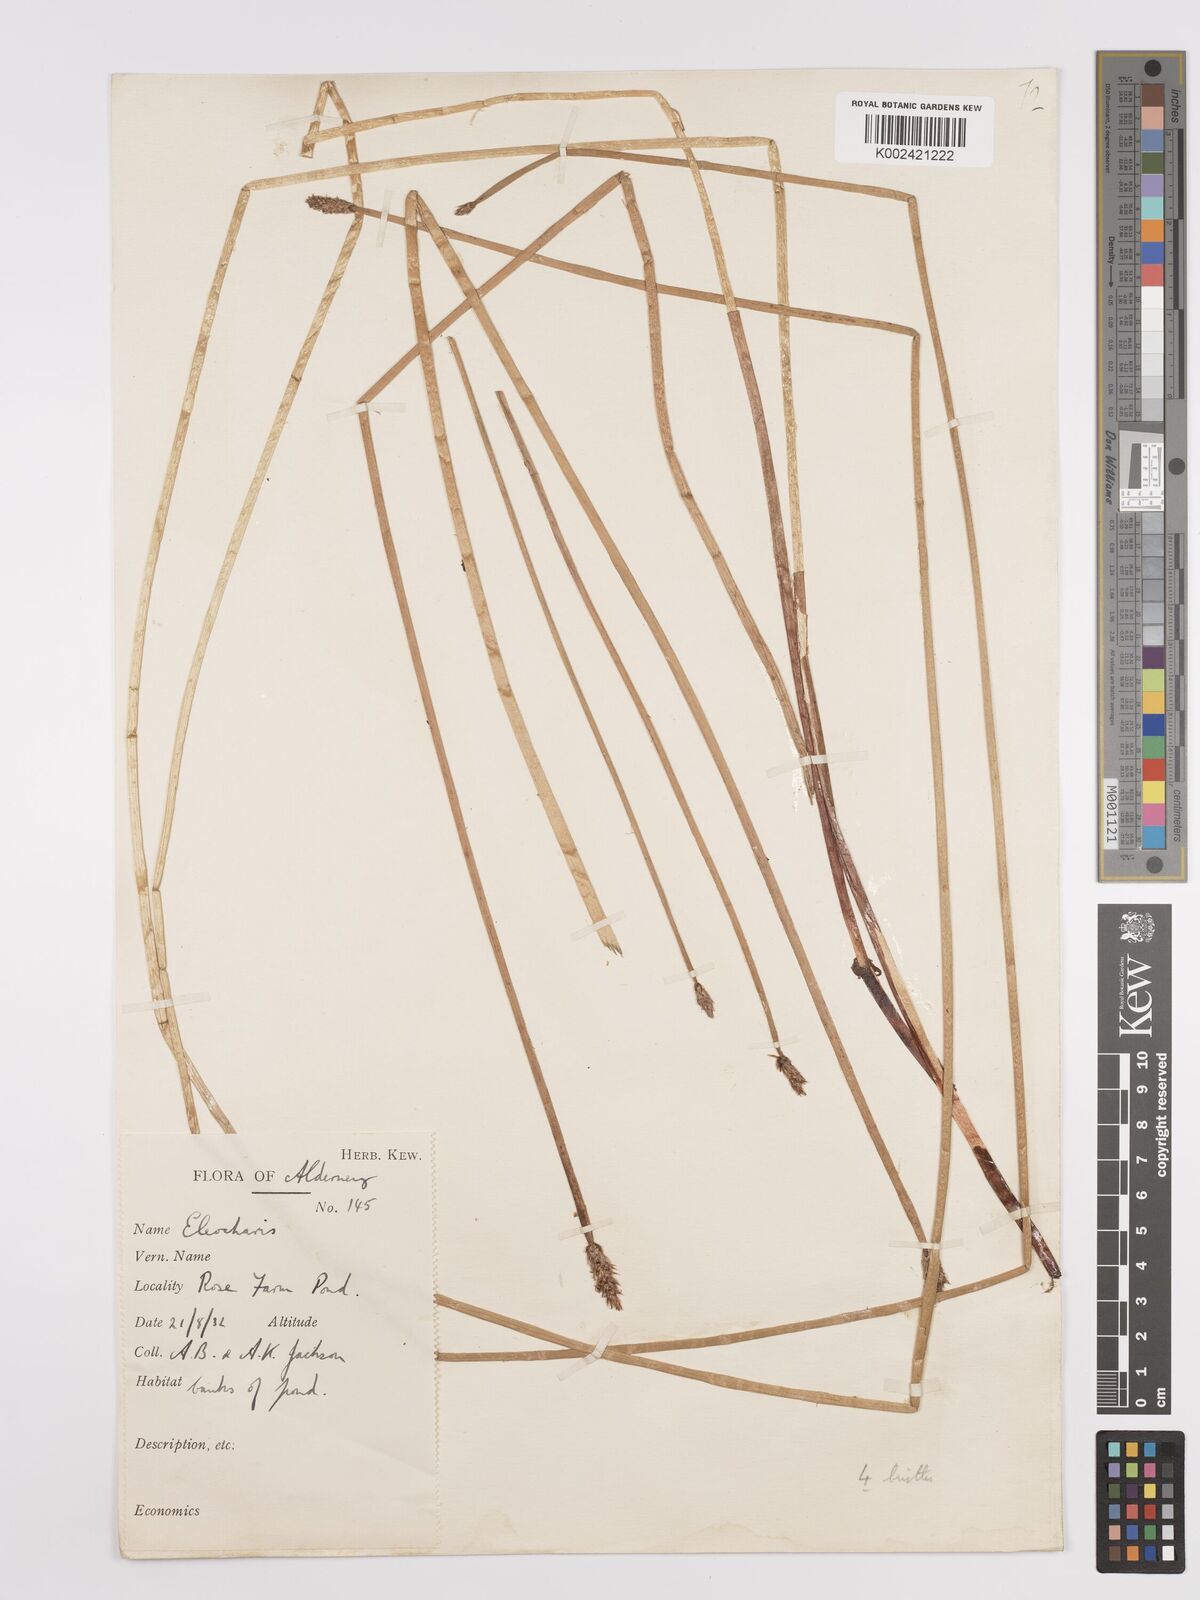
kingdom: Plantae
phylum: Tracheophyta
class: Liliopsida
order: Poales
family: Cyperaceae
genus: Eleocharis
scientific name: Eleocharis palustris
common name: Common spike-rush
